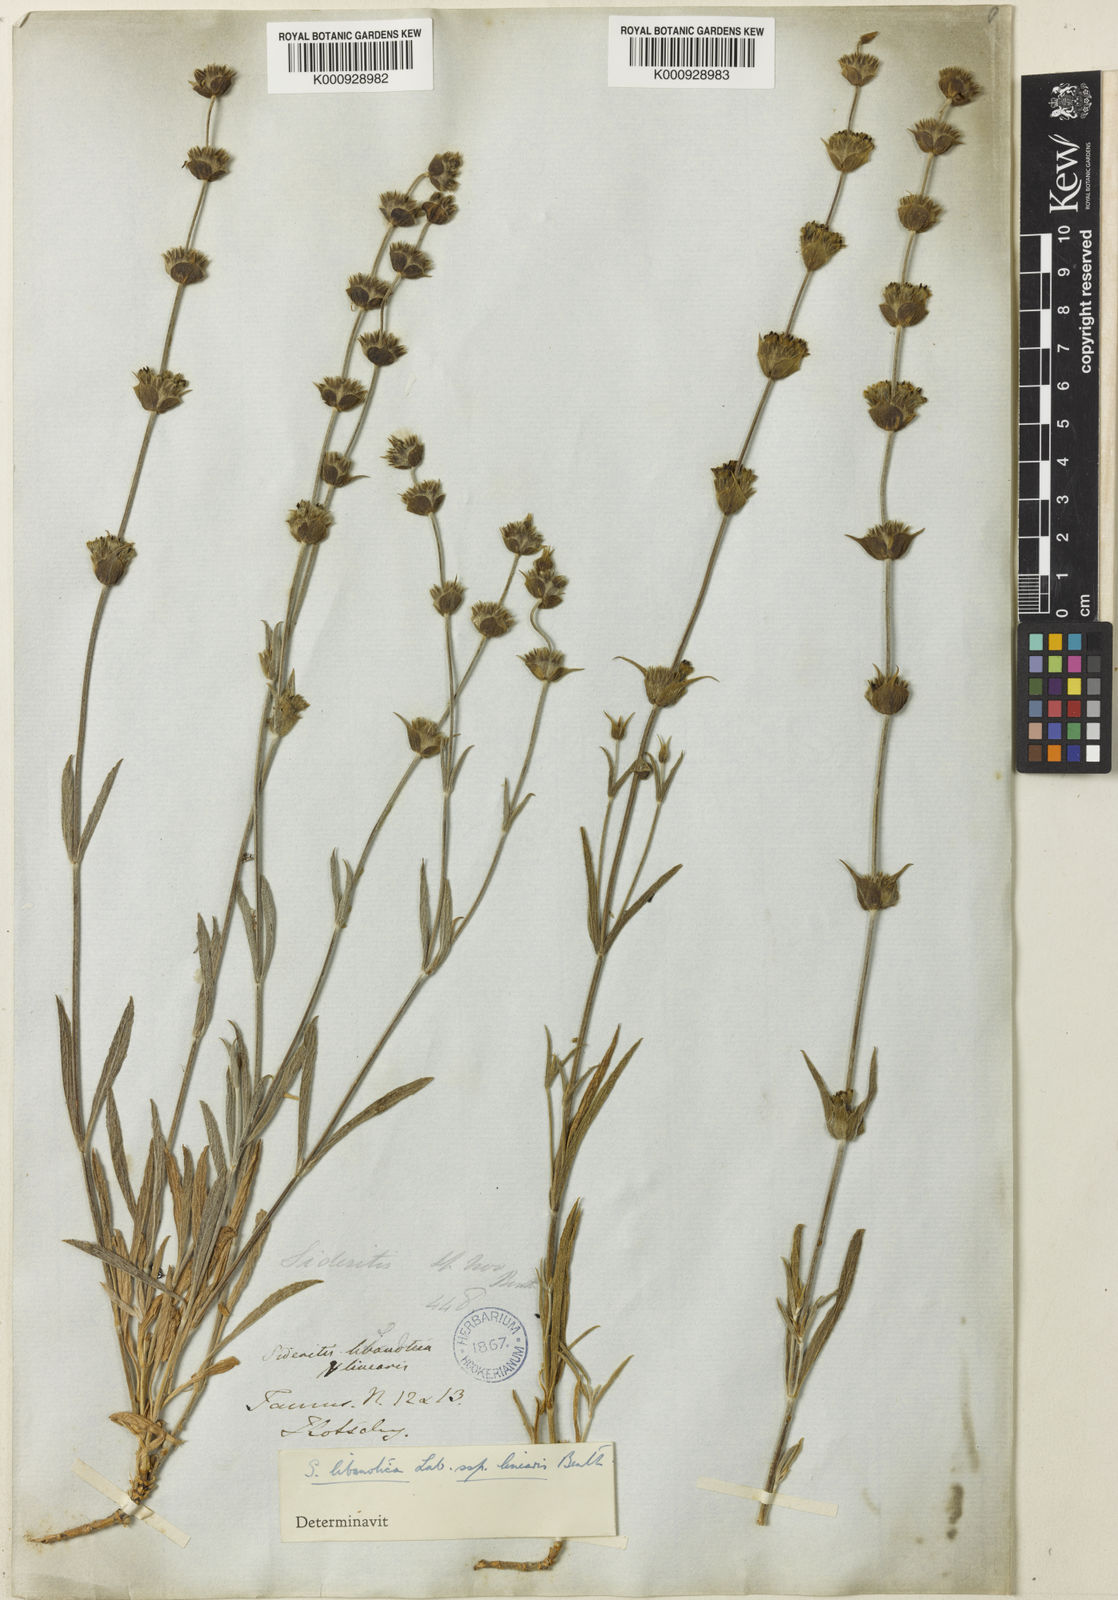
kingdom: Plantae
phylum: Tracheophyta
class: Magnoliopsida
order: Lamiales
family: Lamiaceae
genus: Sideritis
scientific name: Sideritis libanotica
